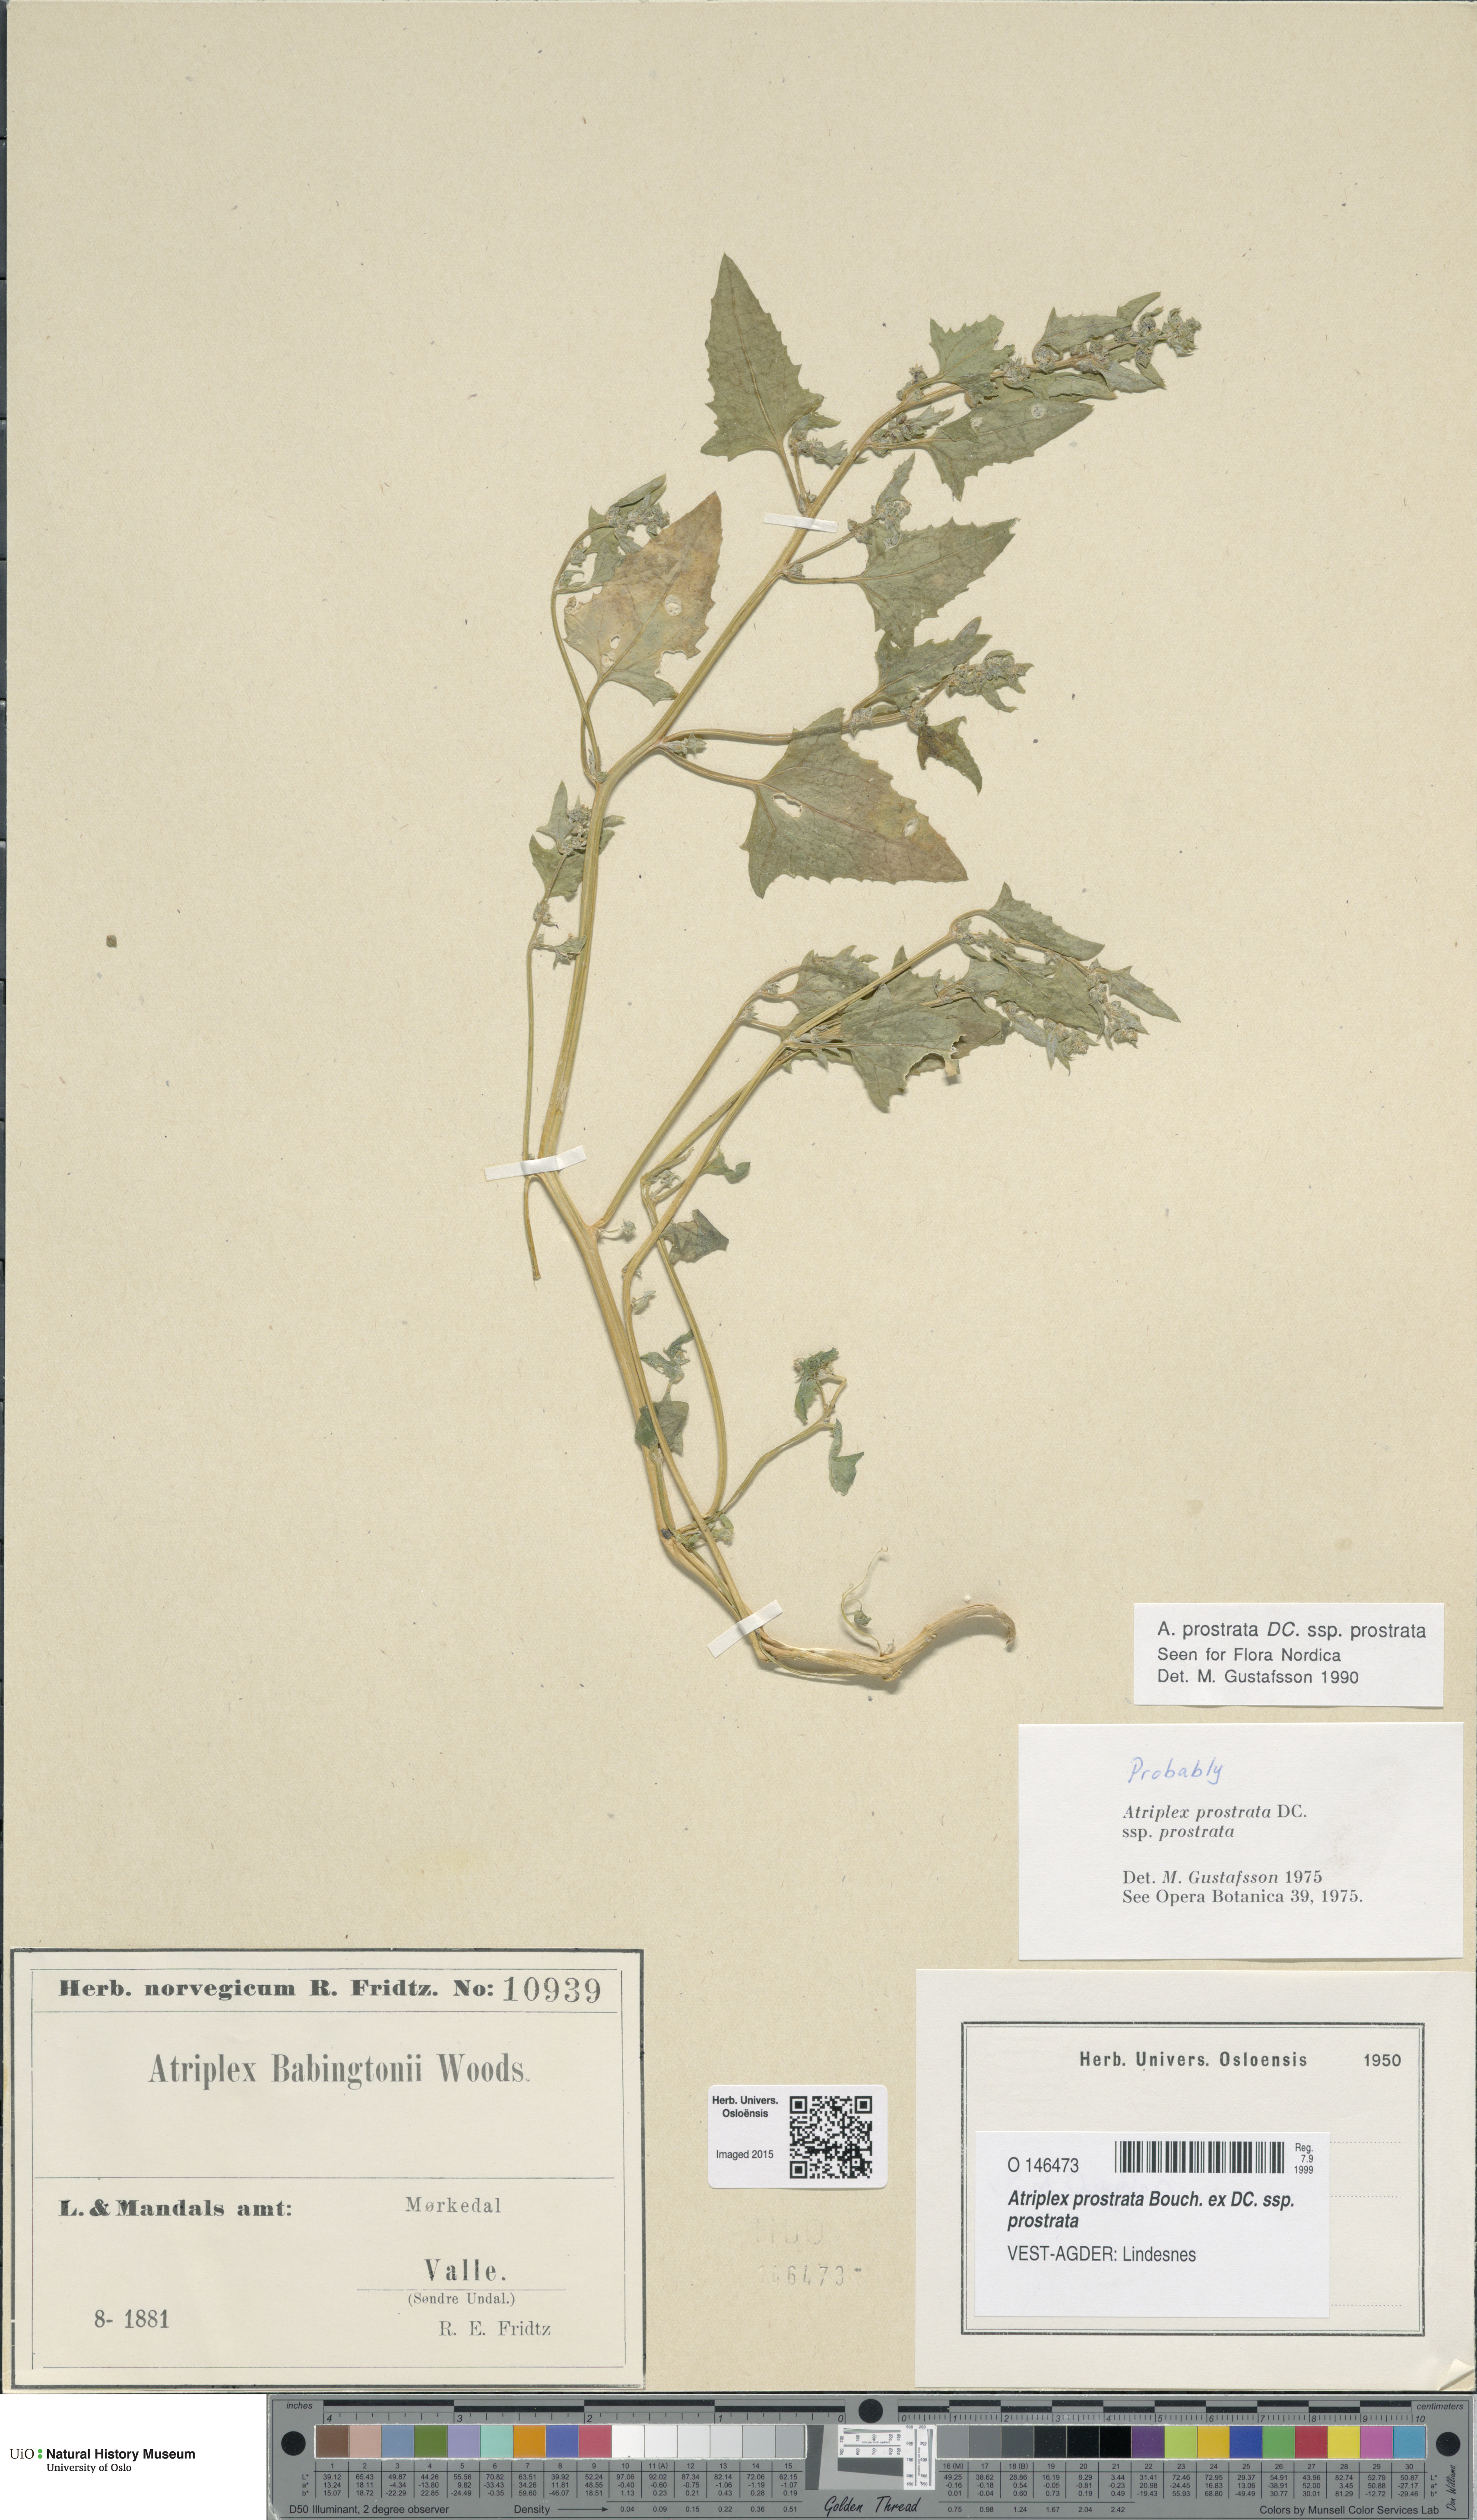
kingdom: Plantae
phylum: Tracheophyta
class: Magnoliopsida
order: Caryophyllales
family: Amaranthaceae
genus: Atriplex
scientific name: Atriplex prostrata
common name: Spear-leaved orache
